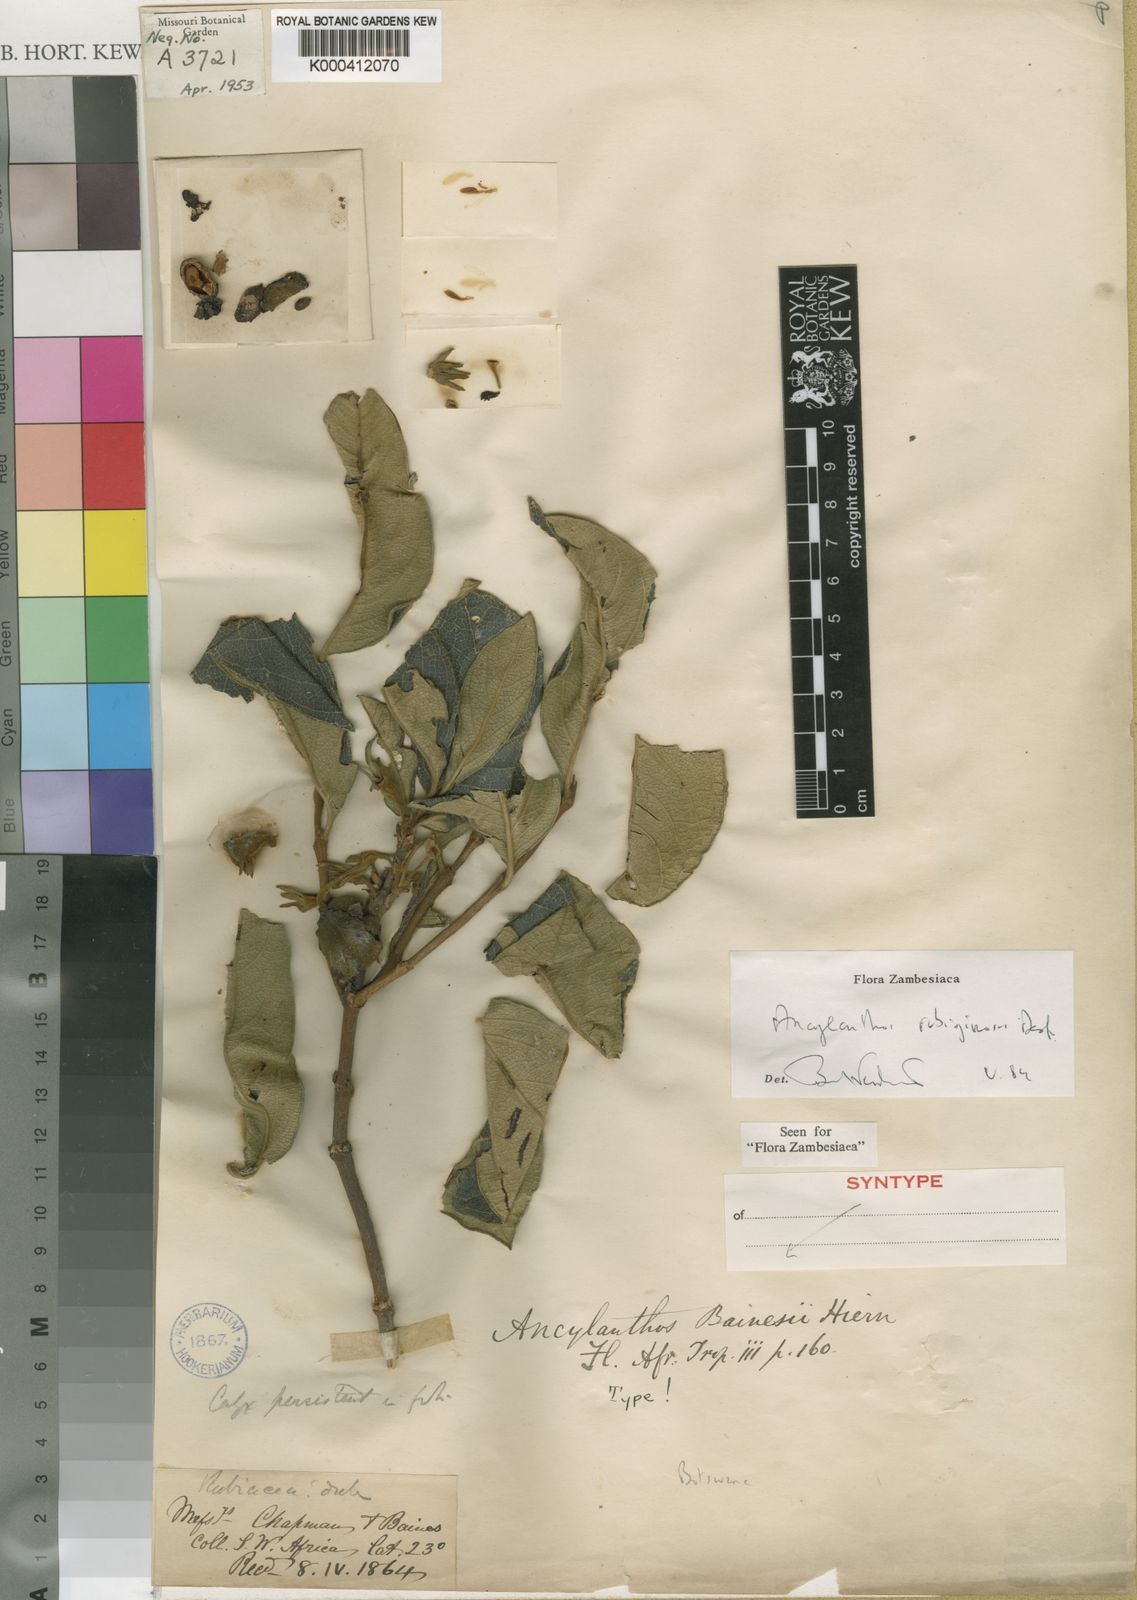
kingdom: Plantae
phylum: Tracheophyta
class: Magnoliopsida
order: Gentianales
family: Rubiaceae
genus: Vangueria
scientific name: Vangueria ferruginea
